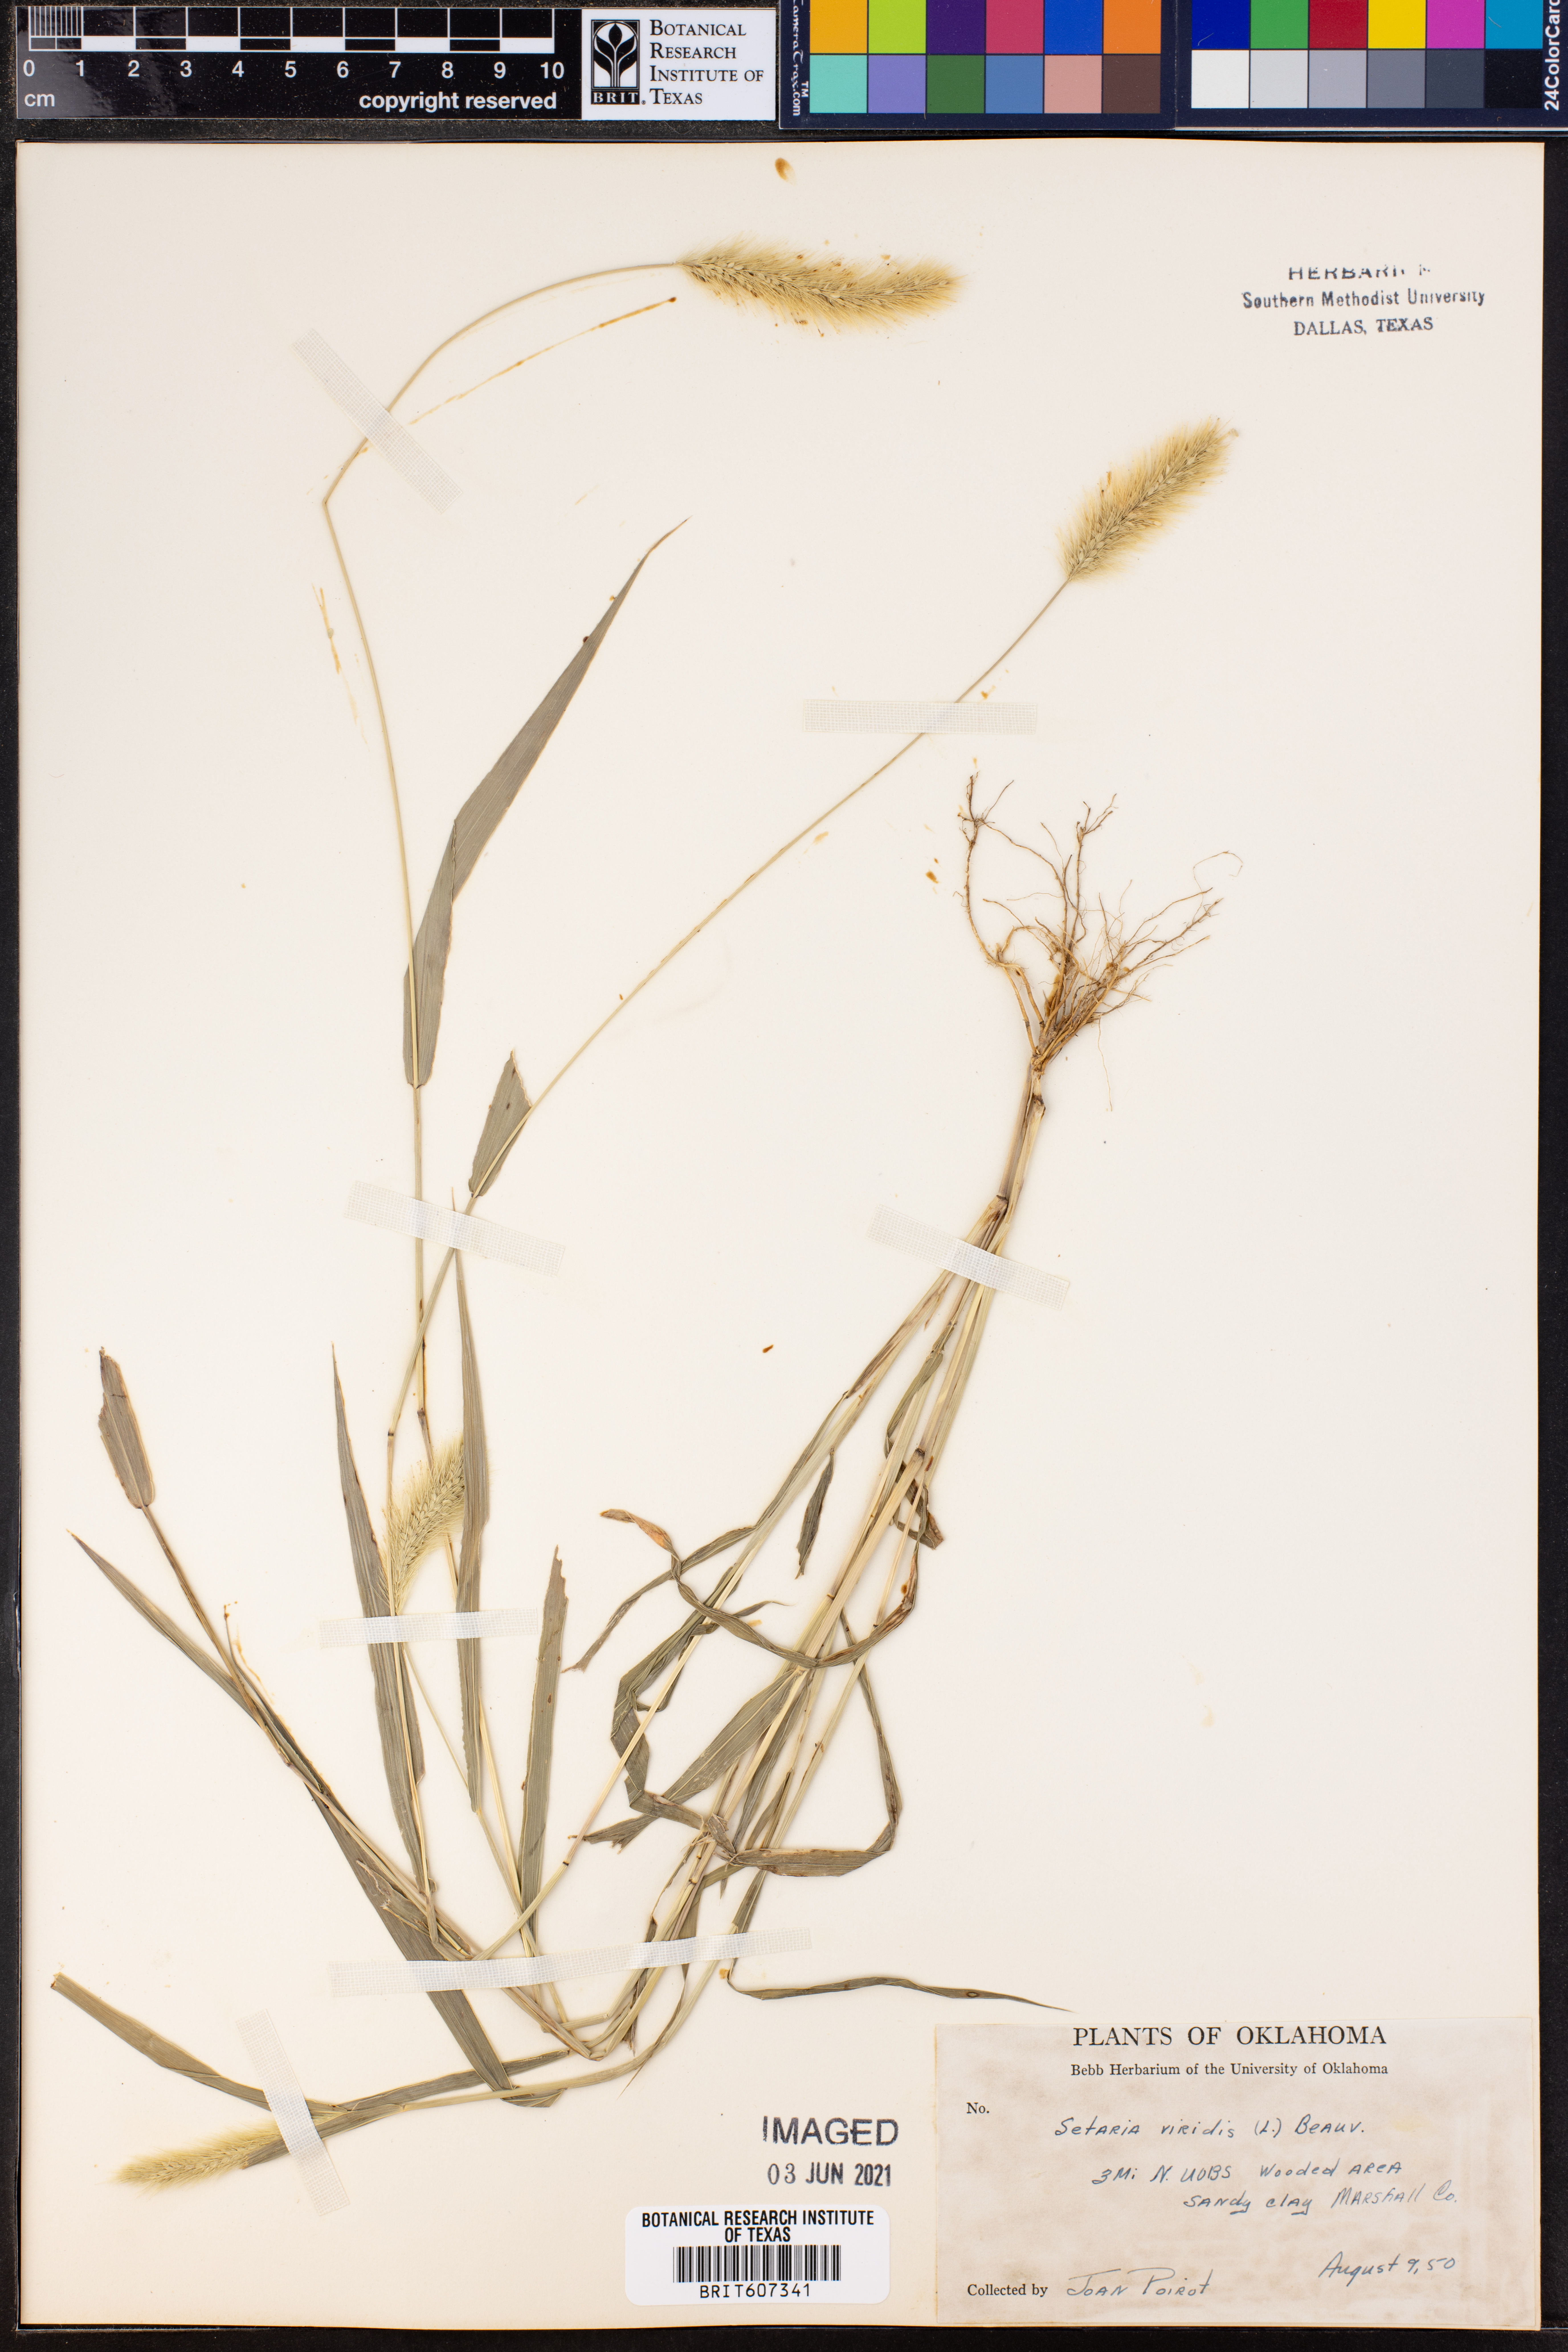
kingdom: Plantae
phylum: Tracheophyta
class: Liliopsida
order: Poales
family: Poaceae
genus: Setaria
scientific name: Setaria viridis
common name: Green bristlegrass
